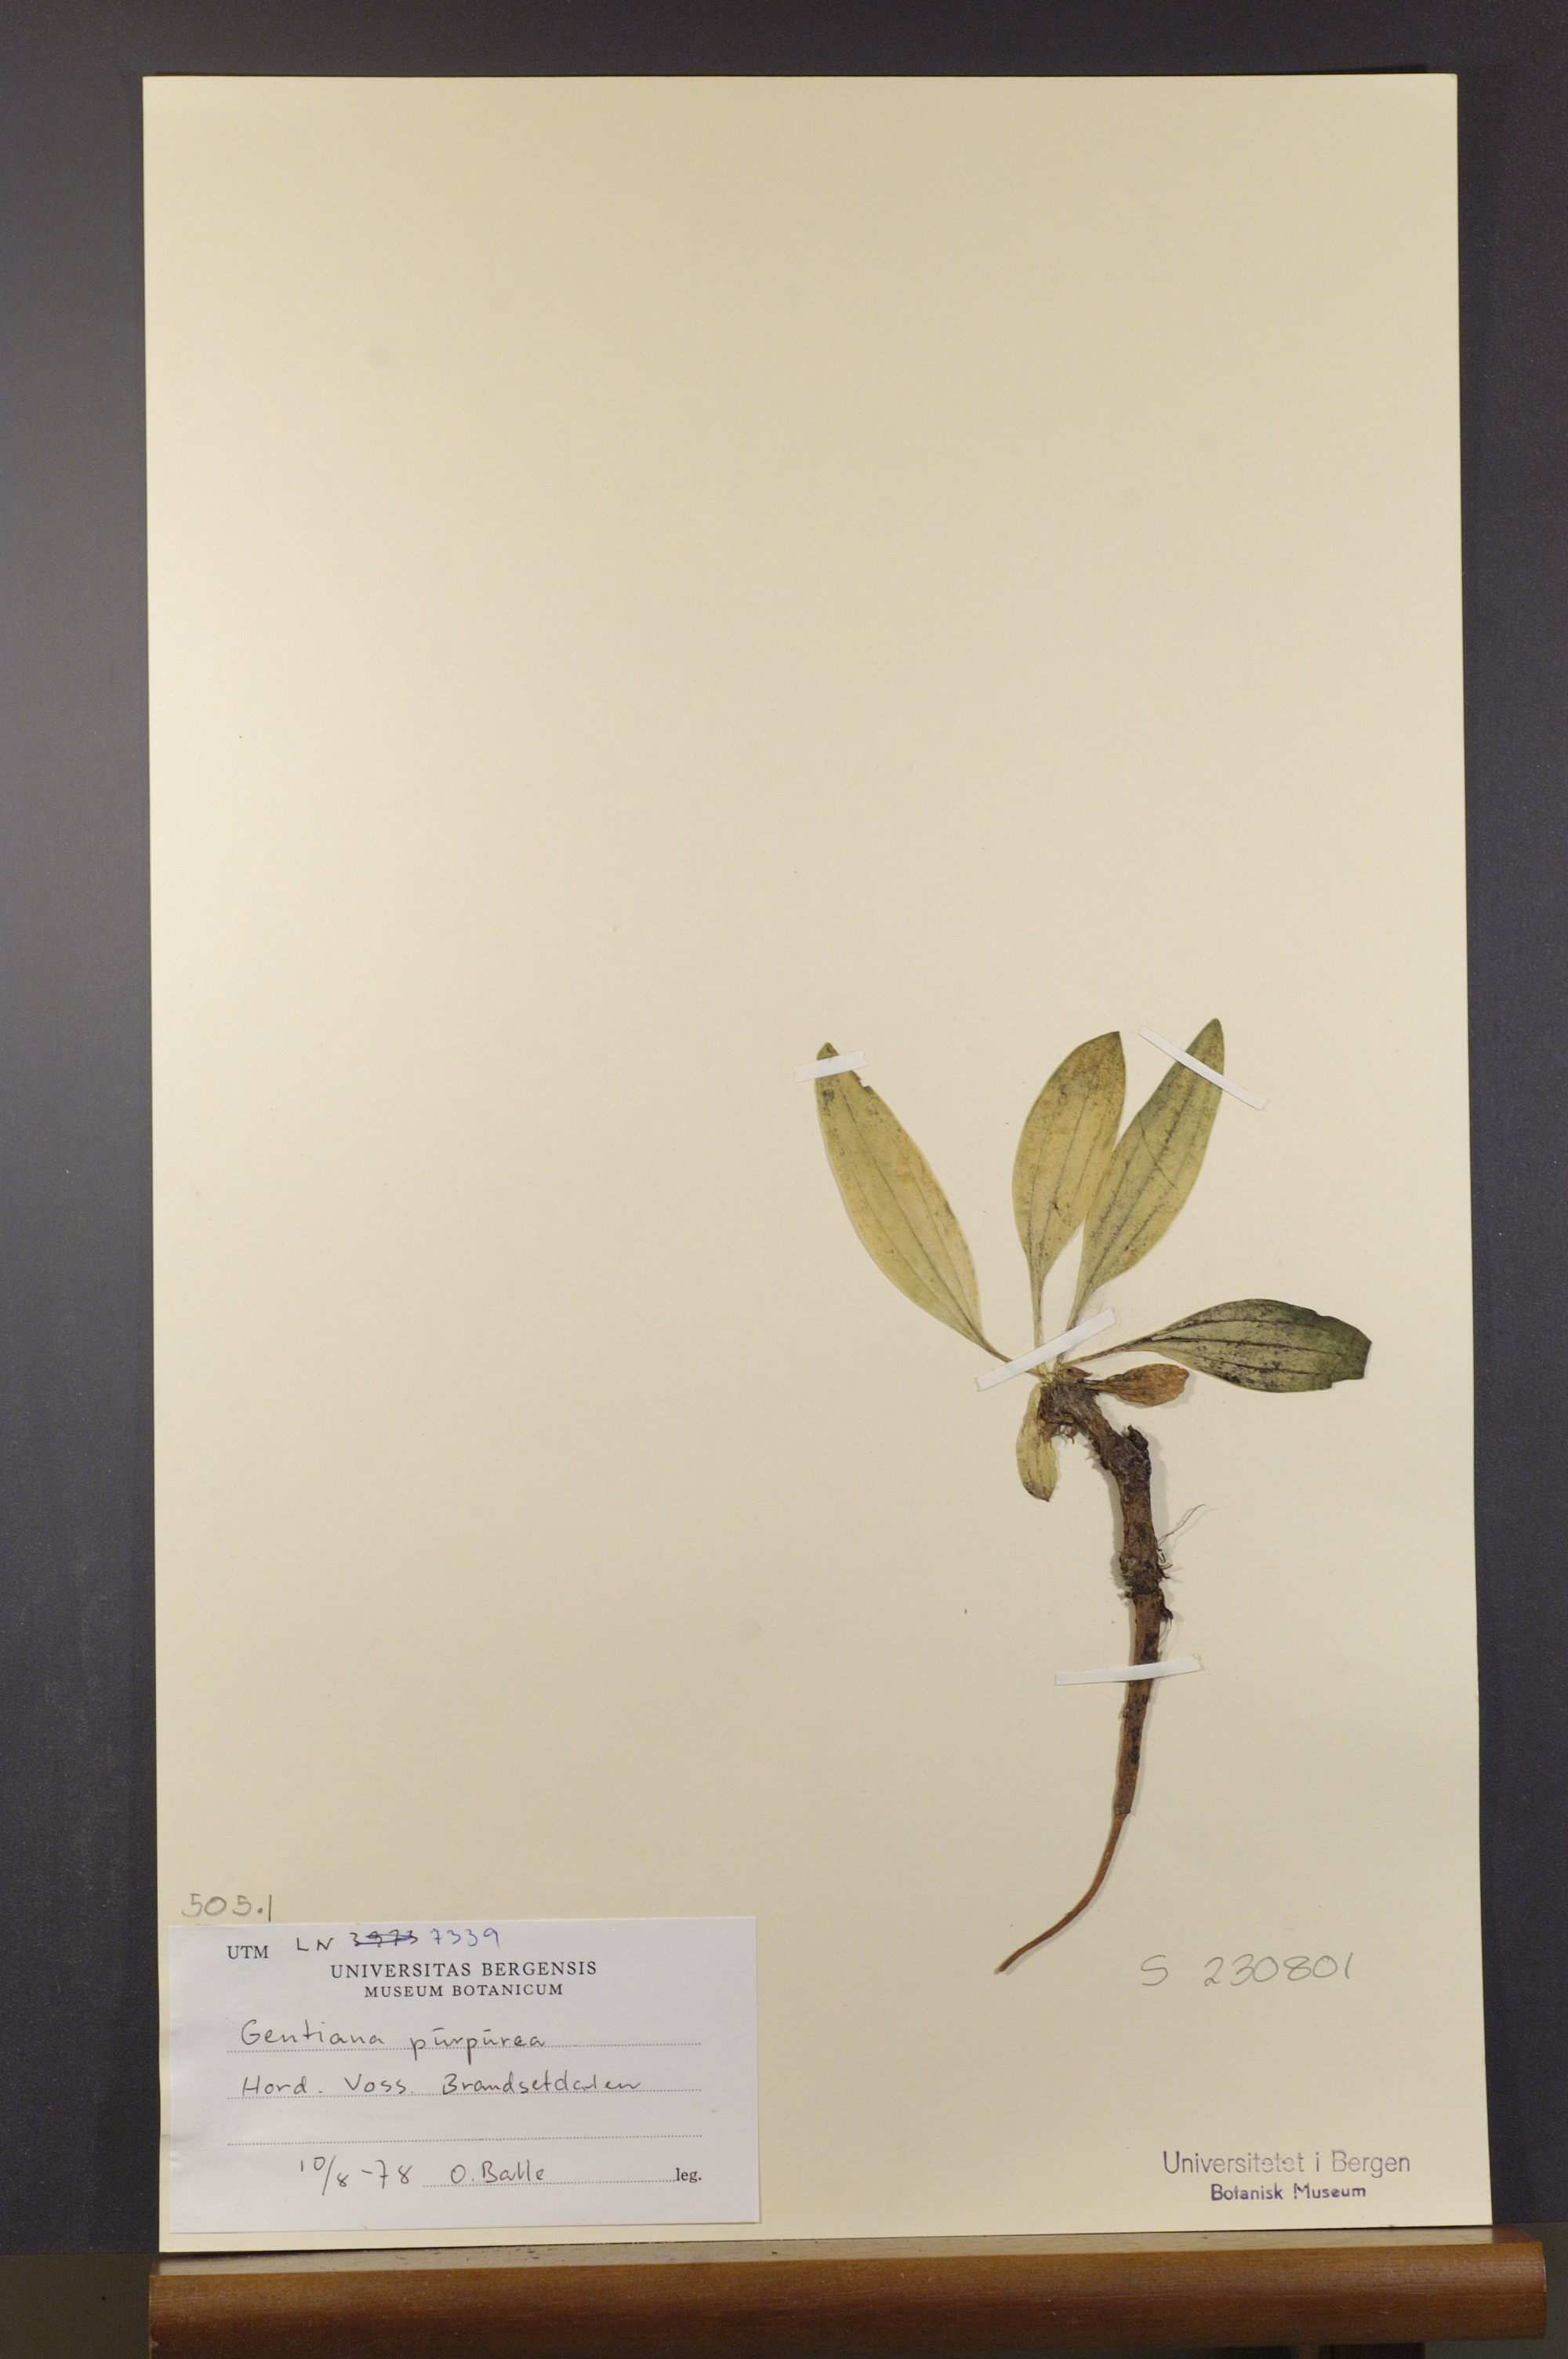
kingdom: Plantae
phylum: Tracheophyta
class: Magnoliopsida
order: Gentianales
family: Gentianaceae
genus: Gentiana
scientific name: Gentiana purpurea
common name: Purple gentian
